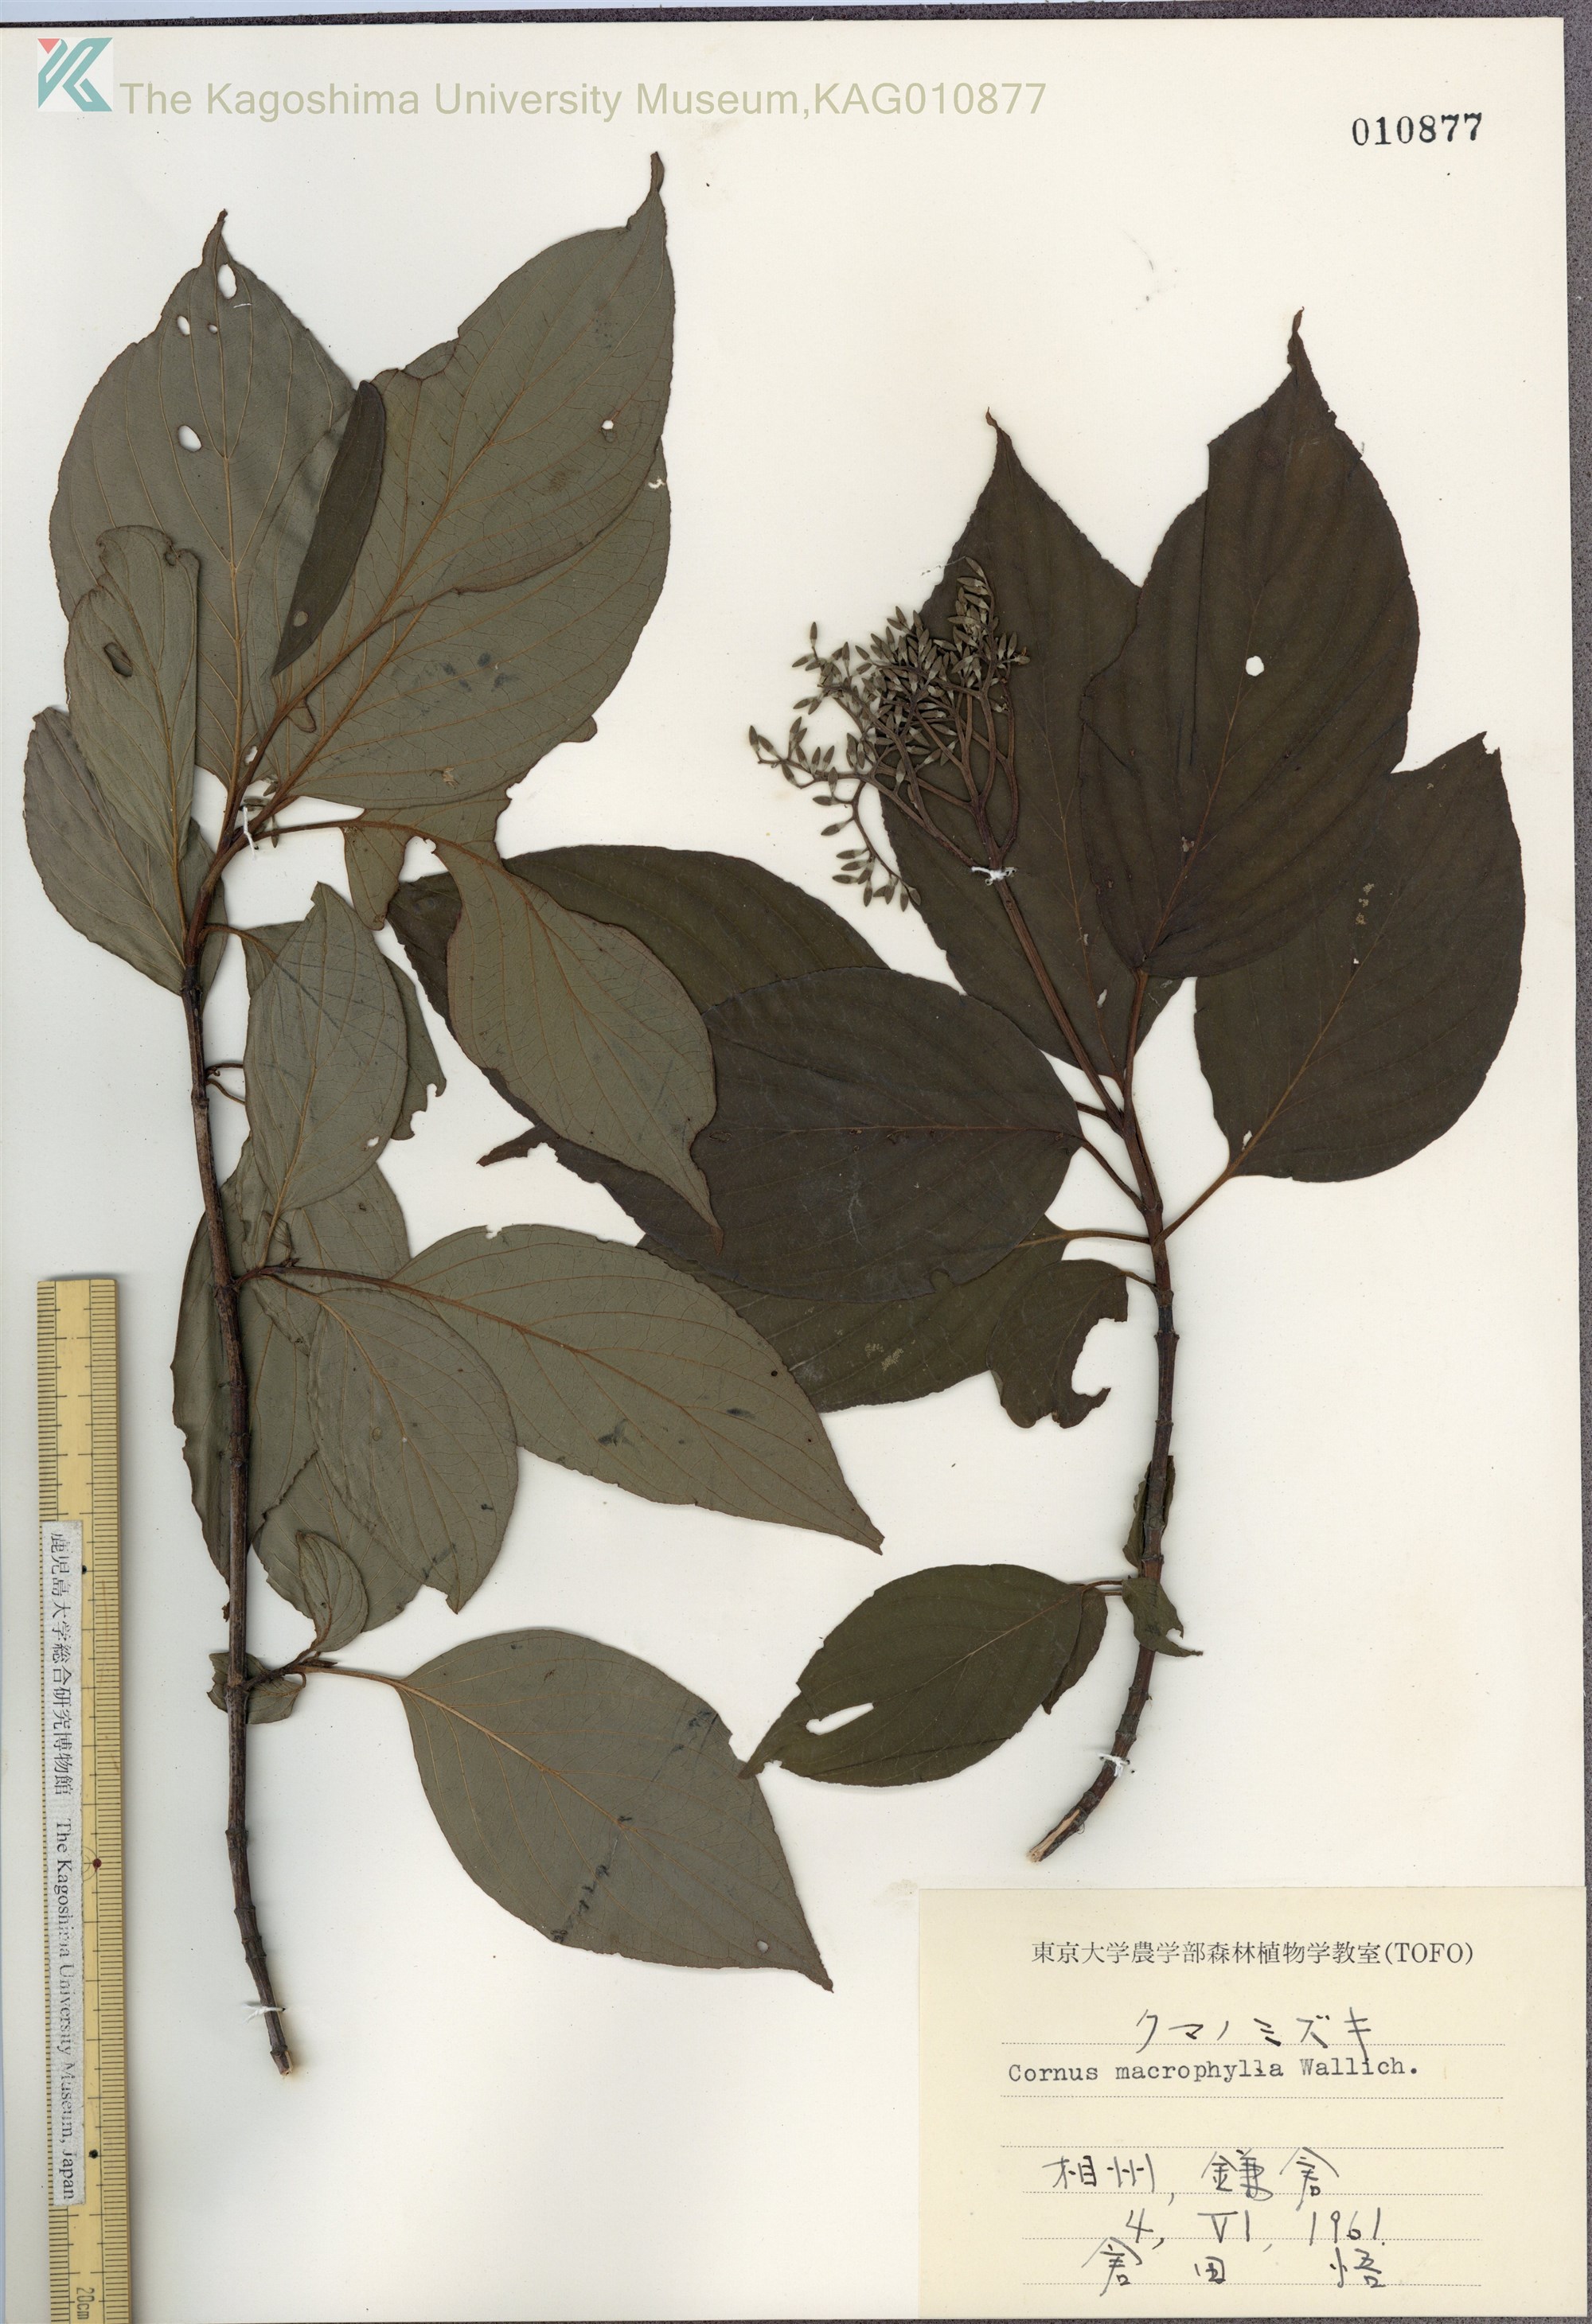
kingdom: Plantae
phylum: Tracheophyta
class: Magnoliopsida
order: Cornales
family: Cornaceae
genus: Cornus
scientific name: Cornus macrophylla
